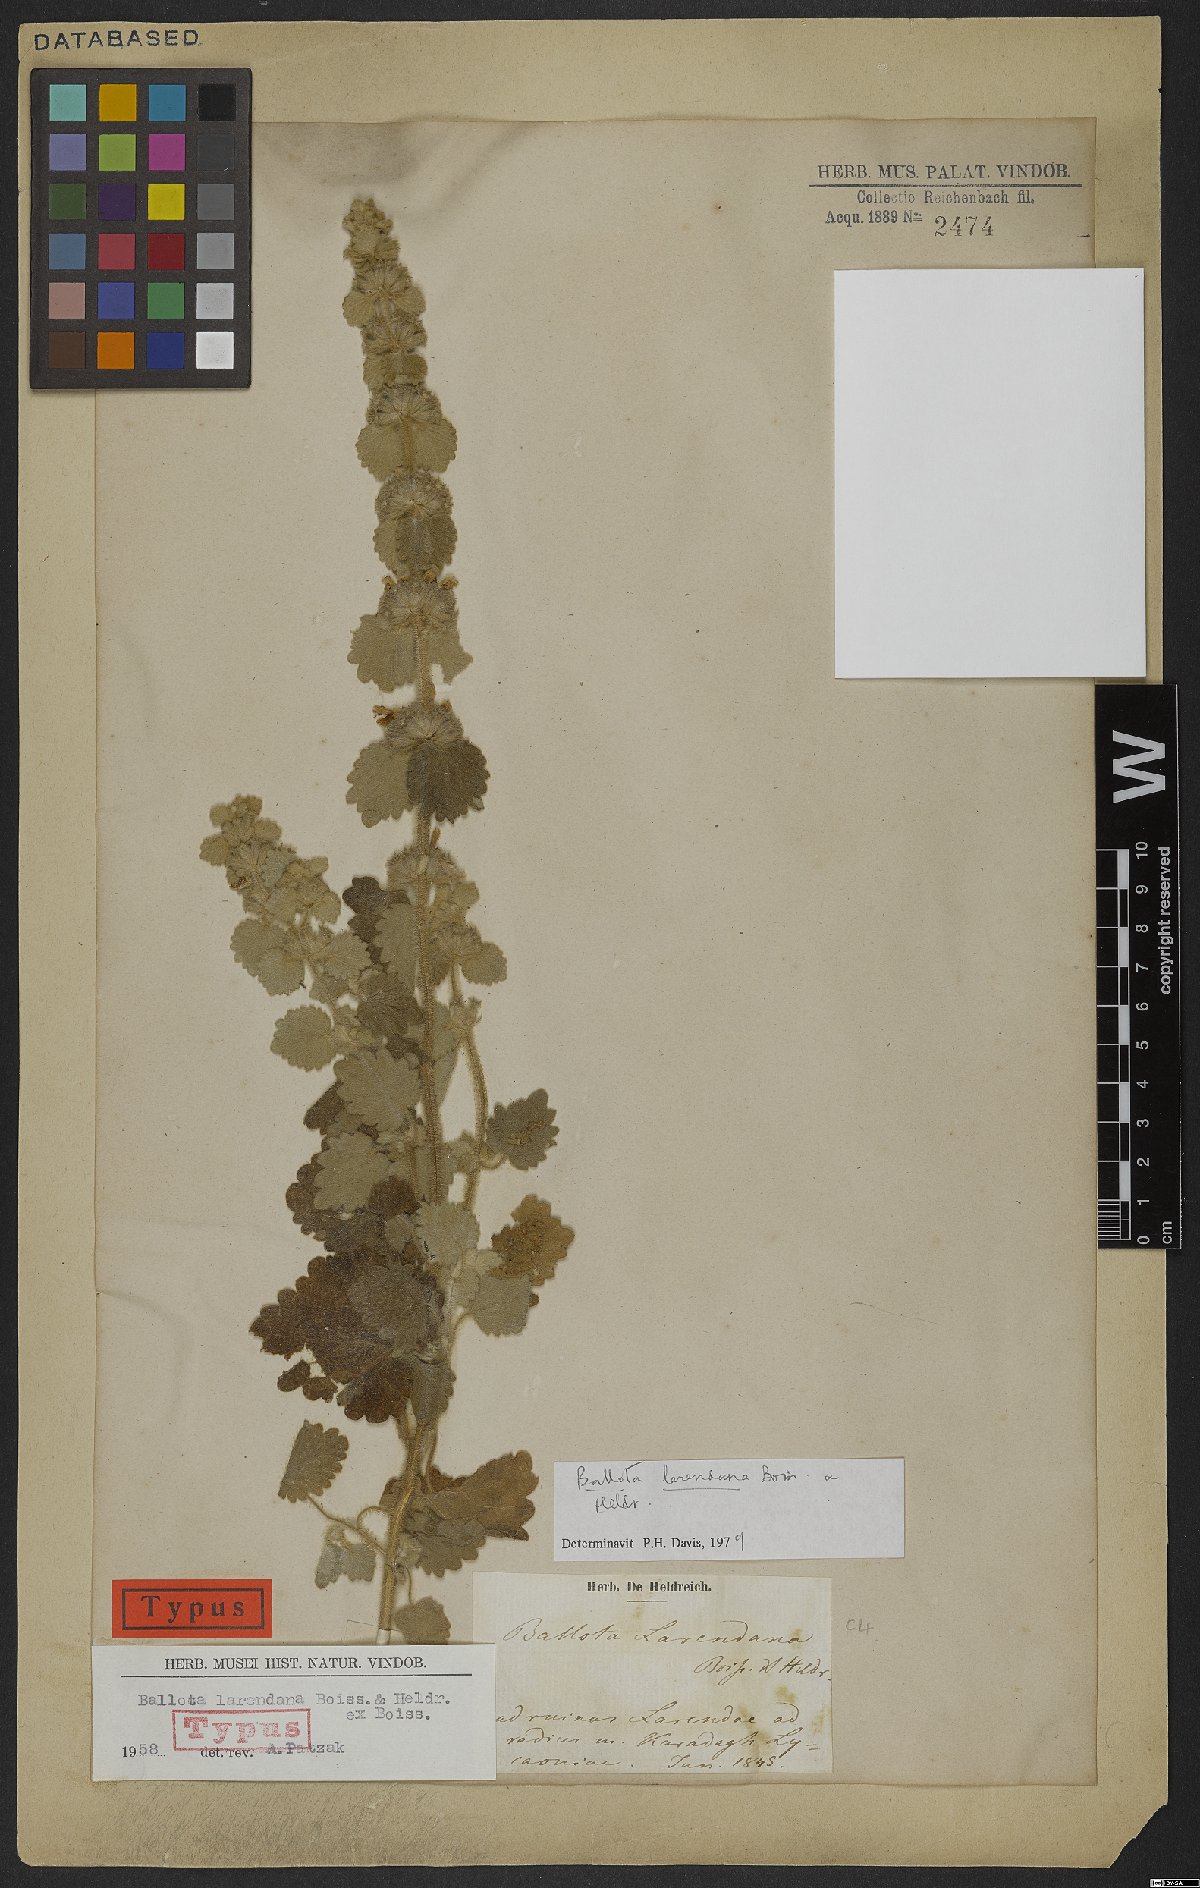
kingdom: Plantae
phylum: Tracheophyta
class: Magnoliopsida
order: Lamiales
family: Lamiaceae
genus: Ballota
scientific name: Ballota larendana
